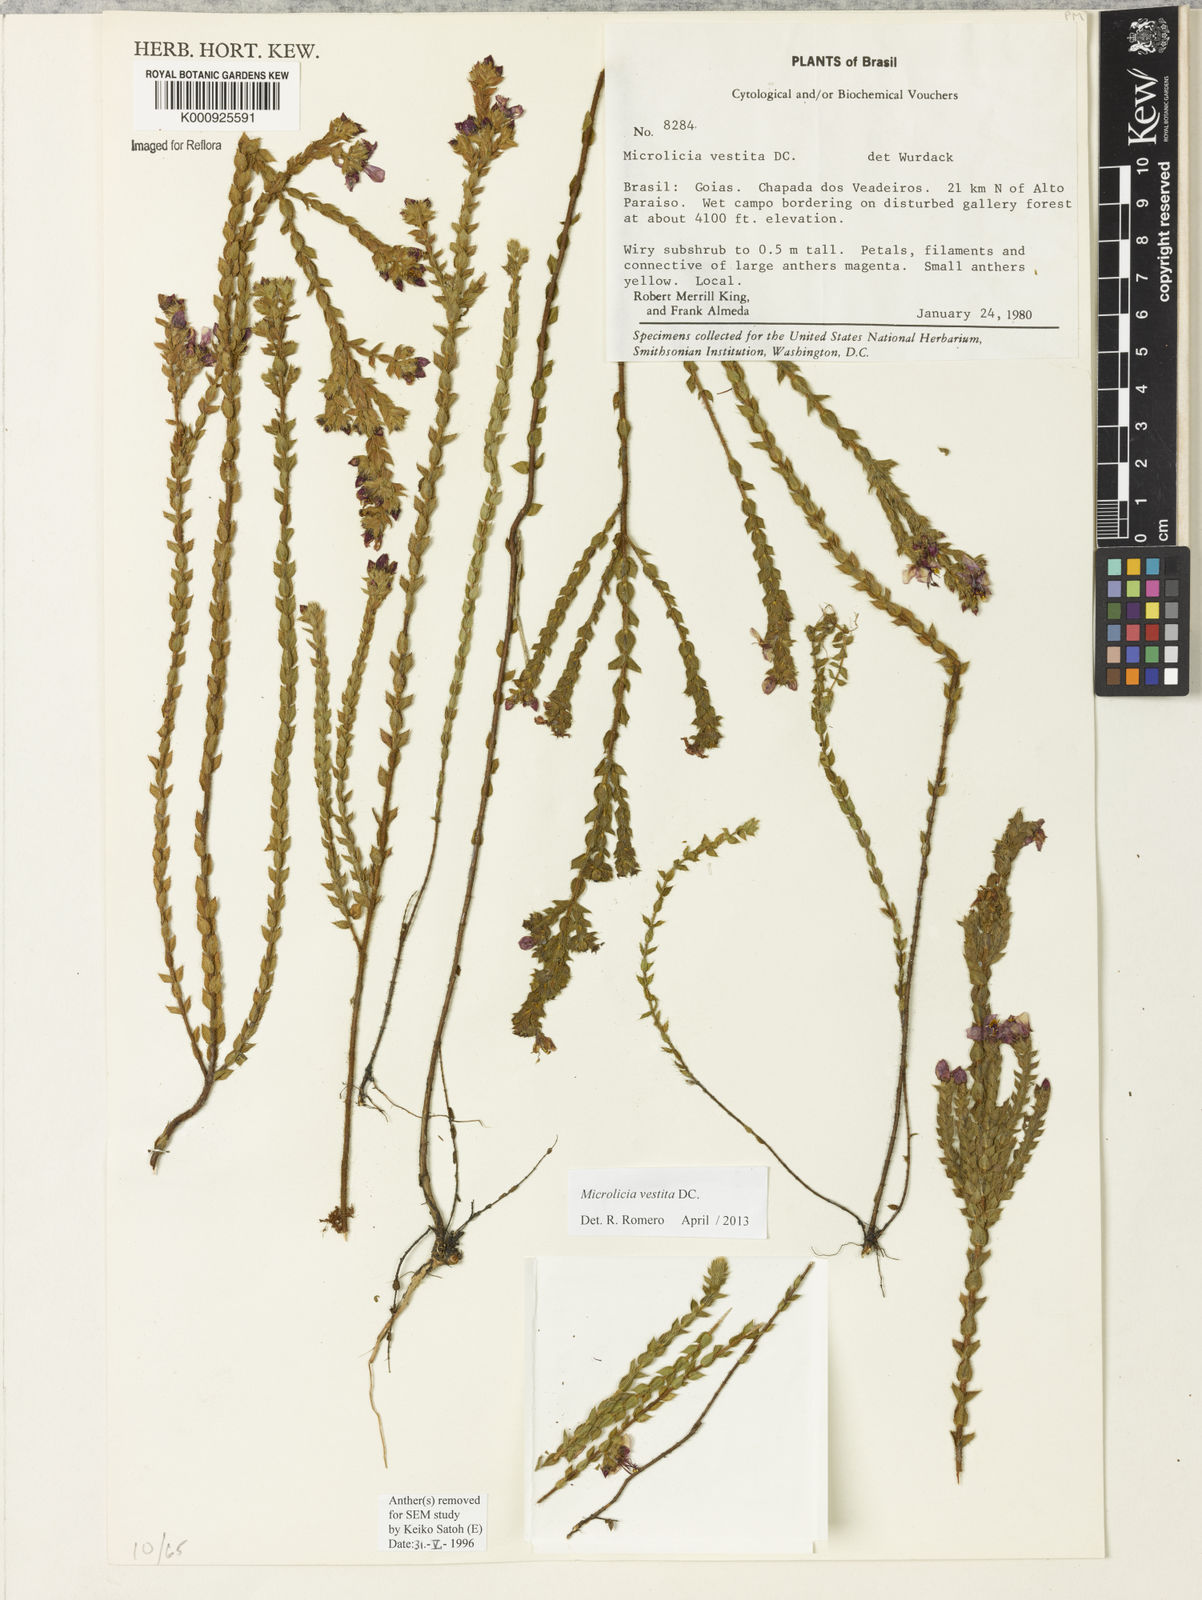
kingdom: Plantae
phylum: Tracheophyta
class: Magnoliopsida
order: Myrtales
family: Melastomataceae
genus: Microlicia
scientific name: Microlicia vestita
